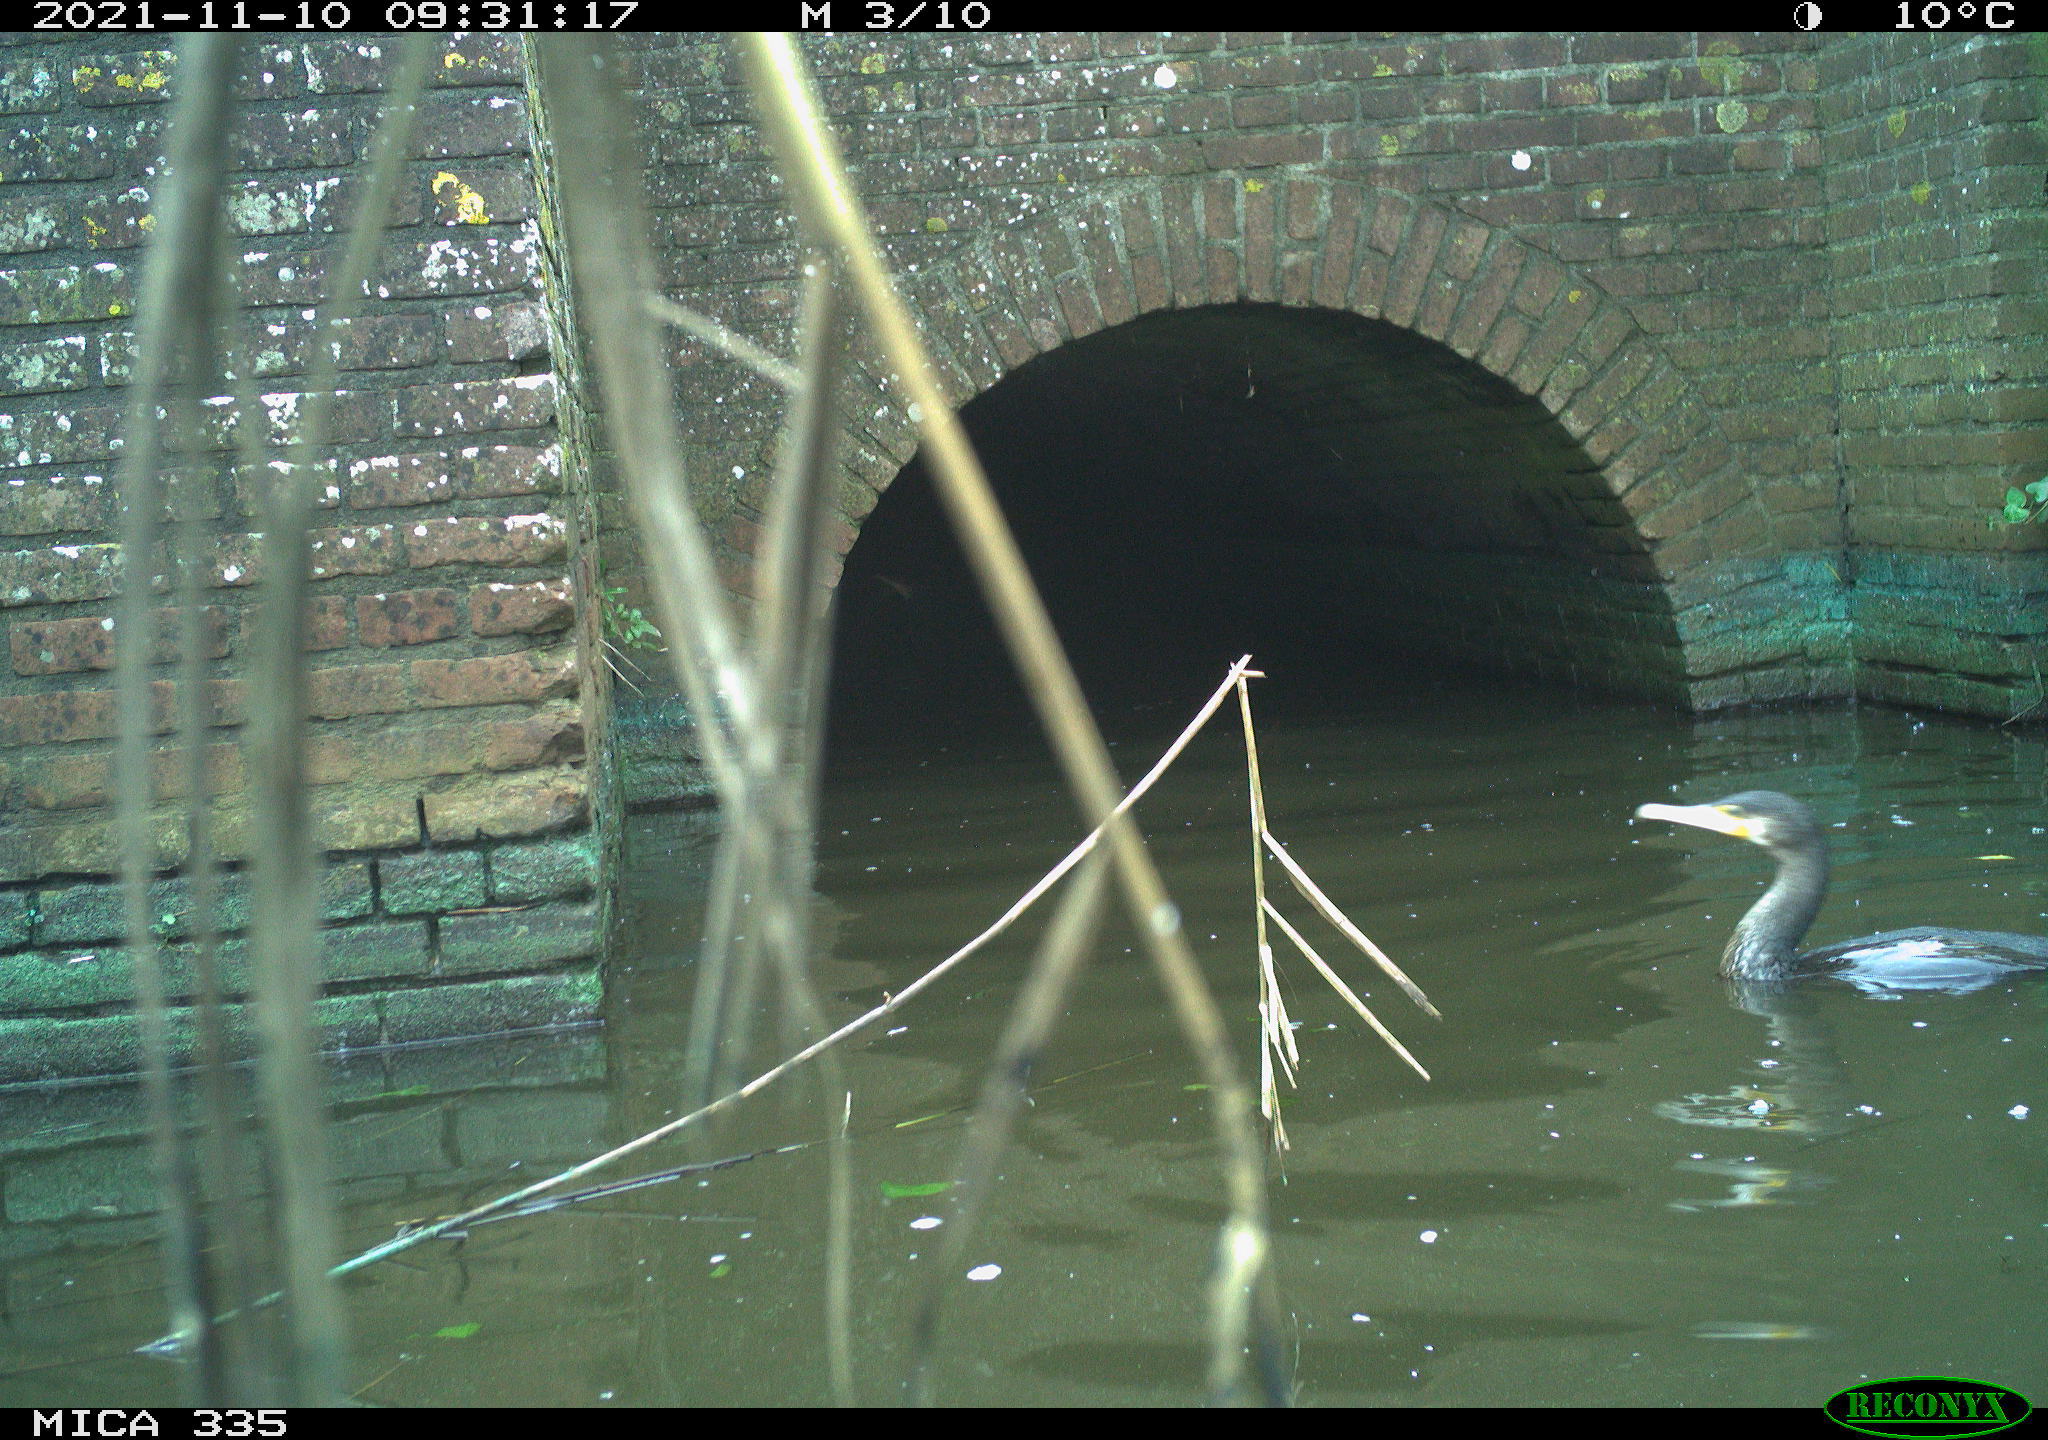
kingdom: Animalia
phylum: Chordata
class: Aves
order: Suliformes
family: Phalacrocoracidae
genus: Phalacrocorax
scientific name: Phalacrocorax carbo
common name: Great cormorant
